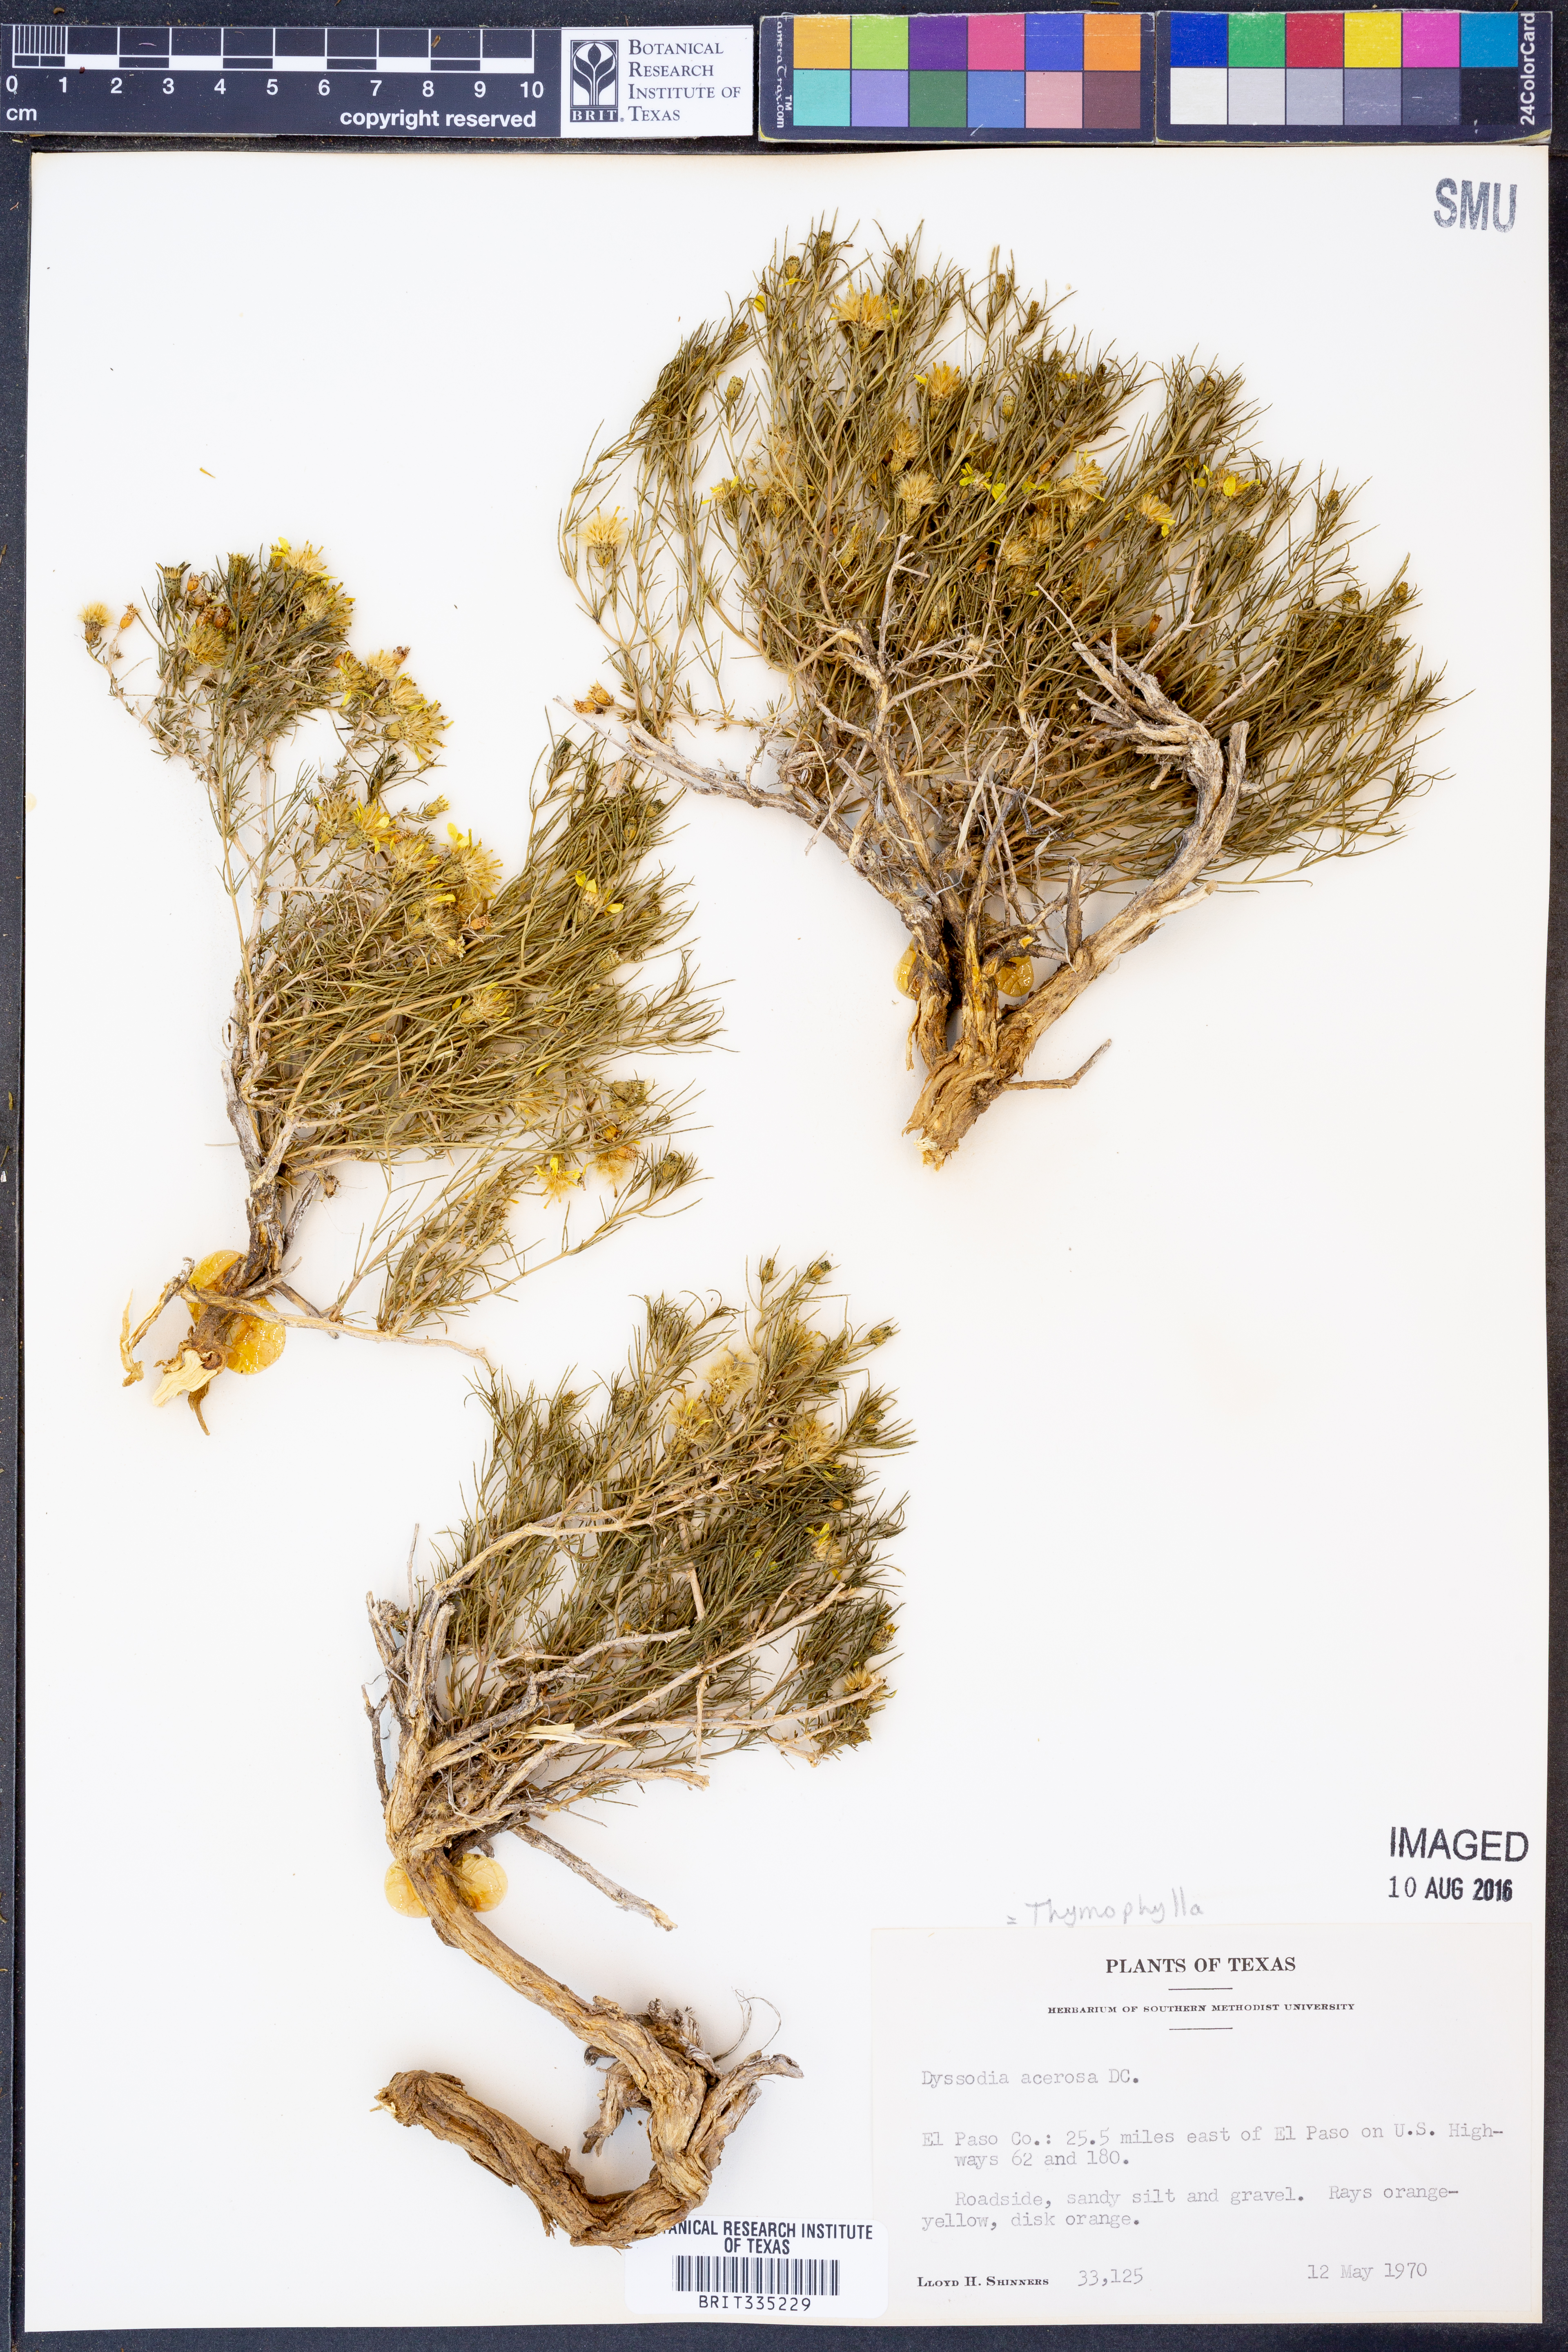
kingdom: Plantae
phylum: Tracheophyta
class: Magnoliopsida
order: Asterales
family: Asteraceae
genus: Thymophylla
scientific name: Thymophylla acerosa
